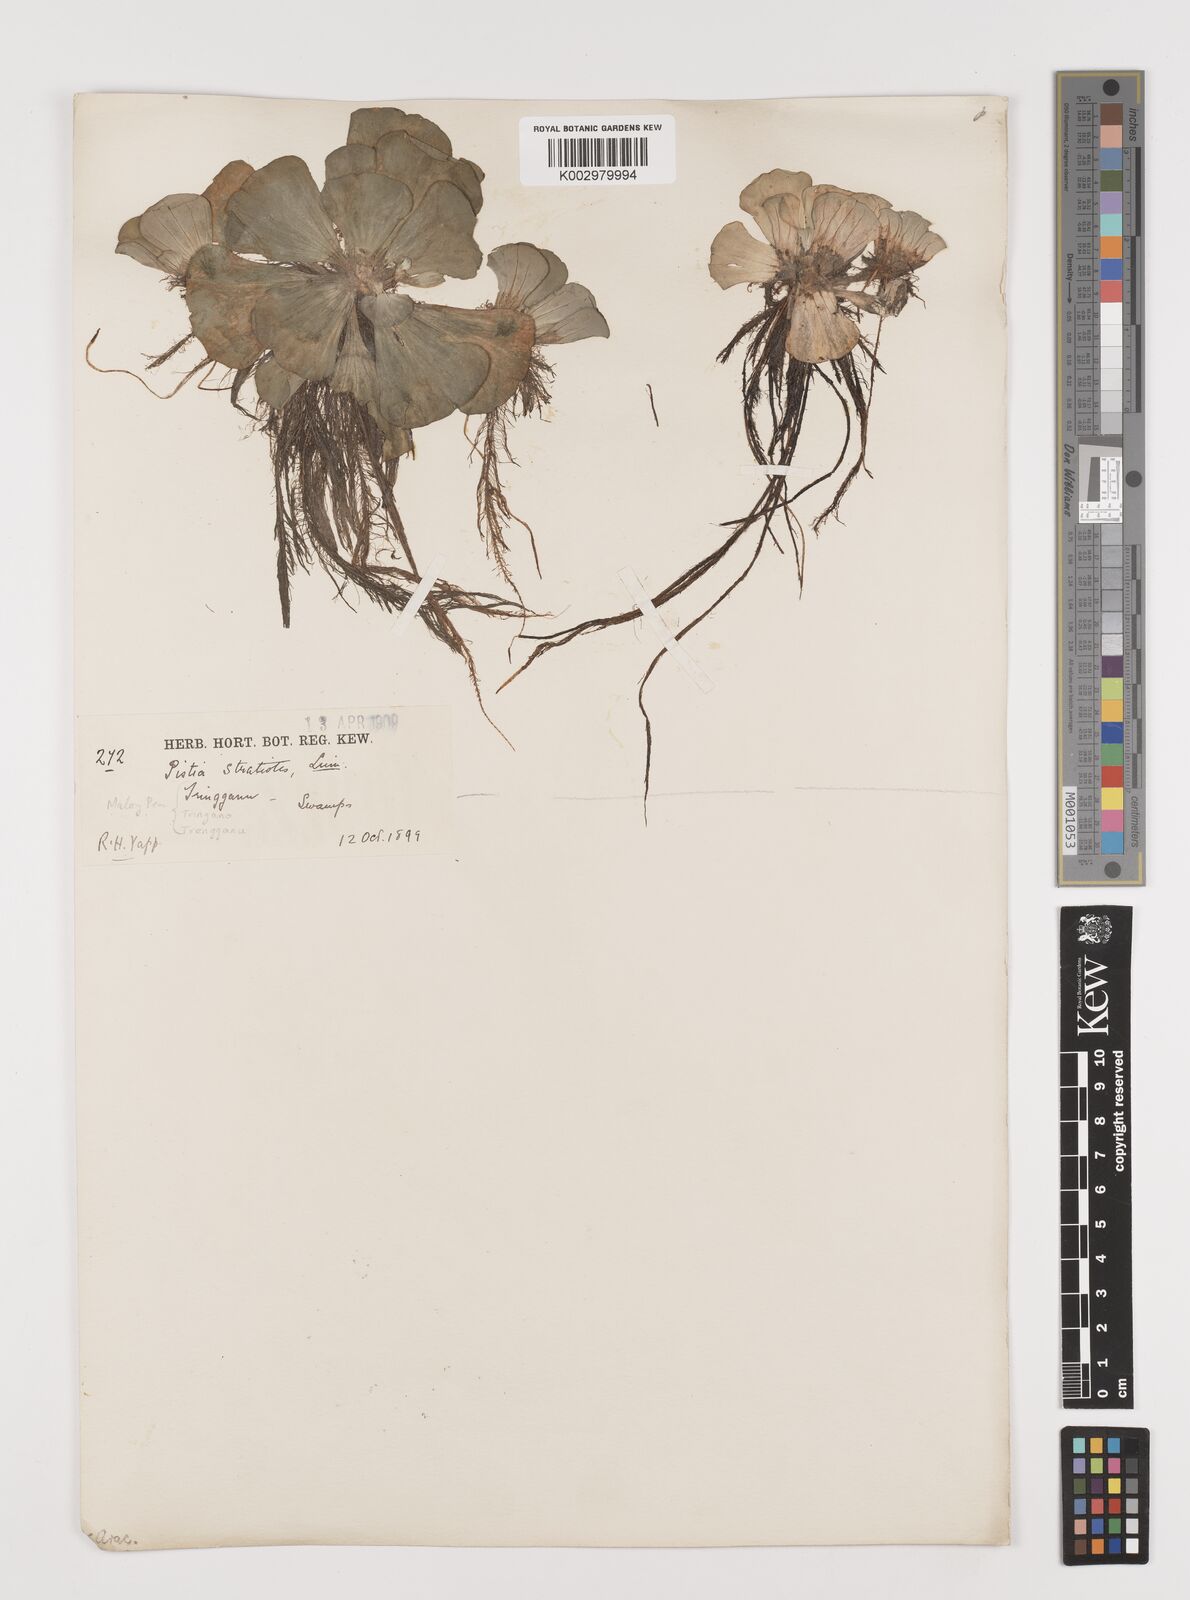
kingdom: Plantae
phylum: Tracheophyta
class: Liliopsida
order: Alismatales
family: Araceae
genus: Pistia
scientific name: Pistia stratiotes
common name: Water lettuce
